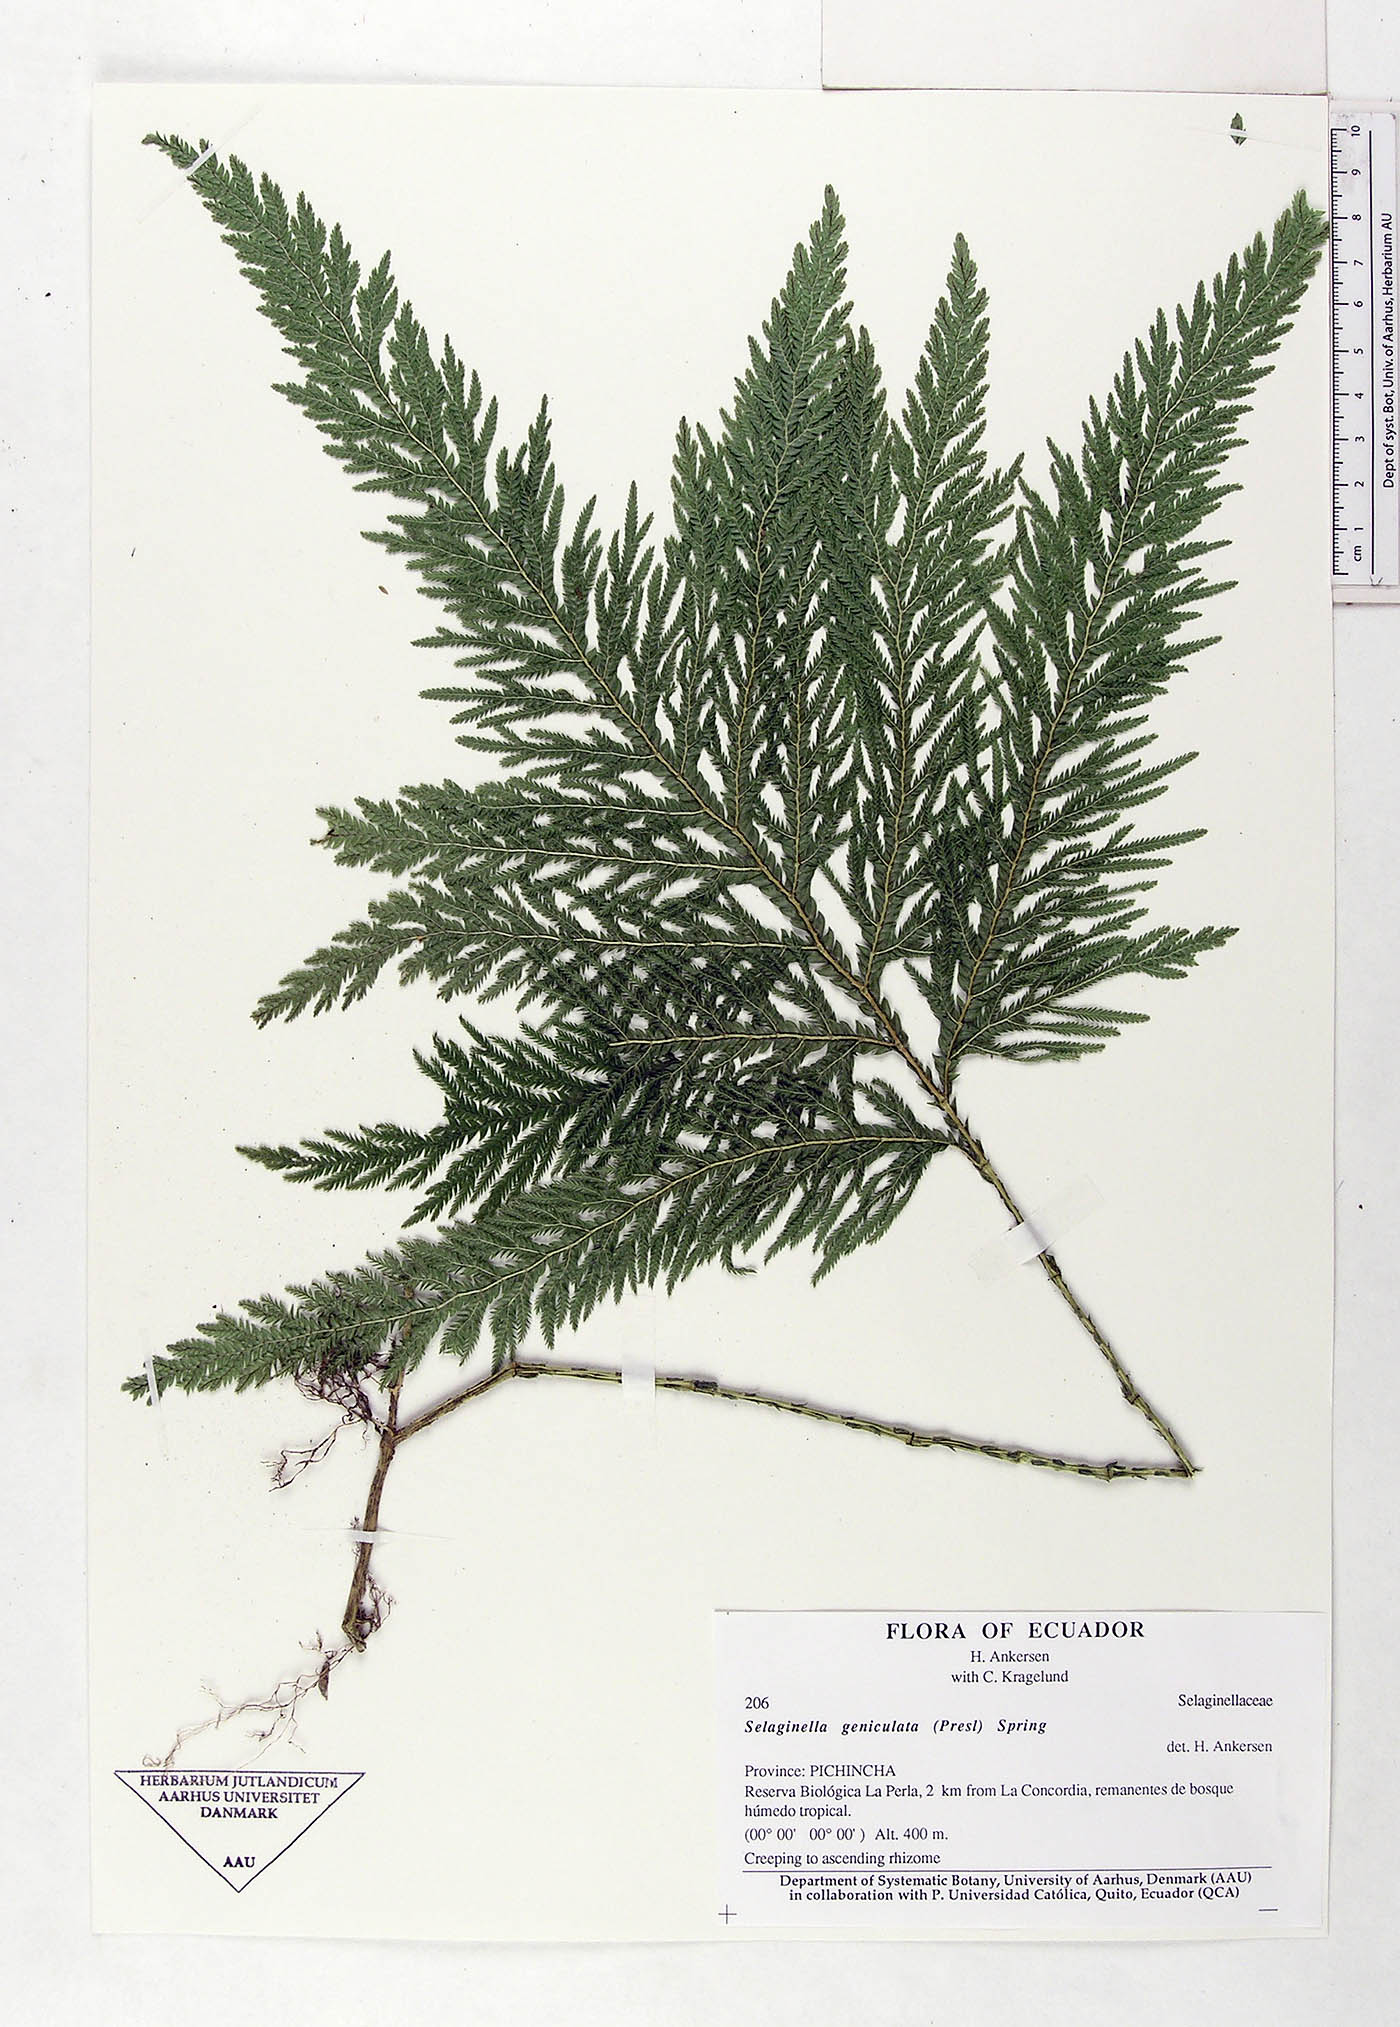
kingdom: Plantae
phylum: Tracheophyta
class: Lycopodiopsida
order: Selaginellales
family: Selaginellaceae
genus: Selaginella
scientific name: Selaginella geniculata
